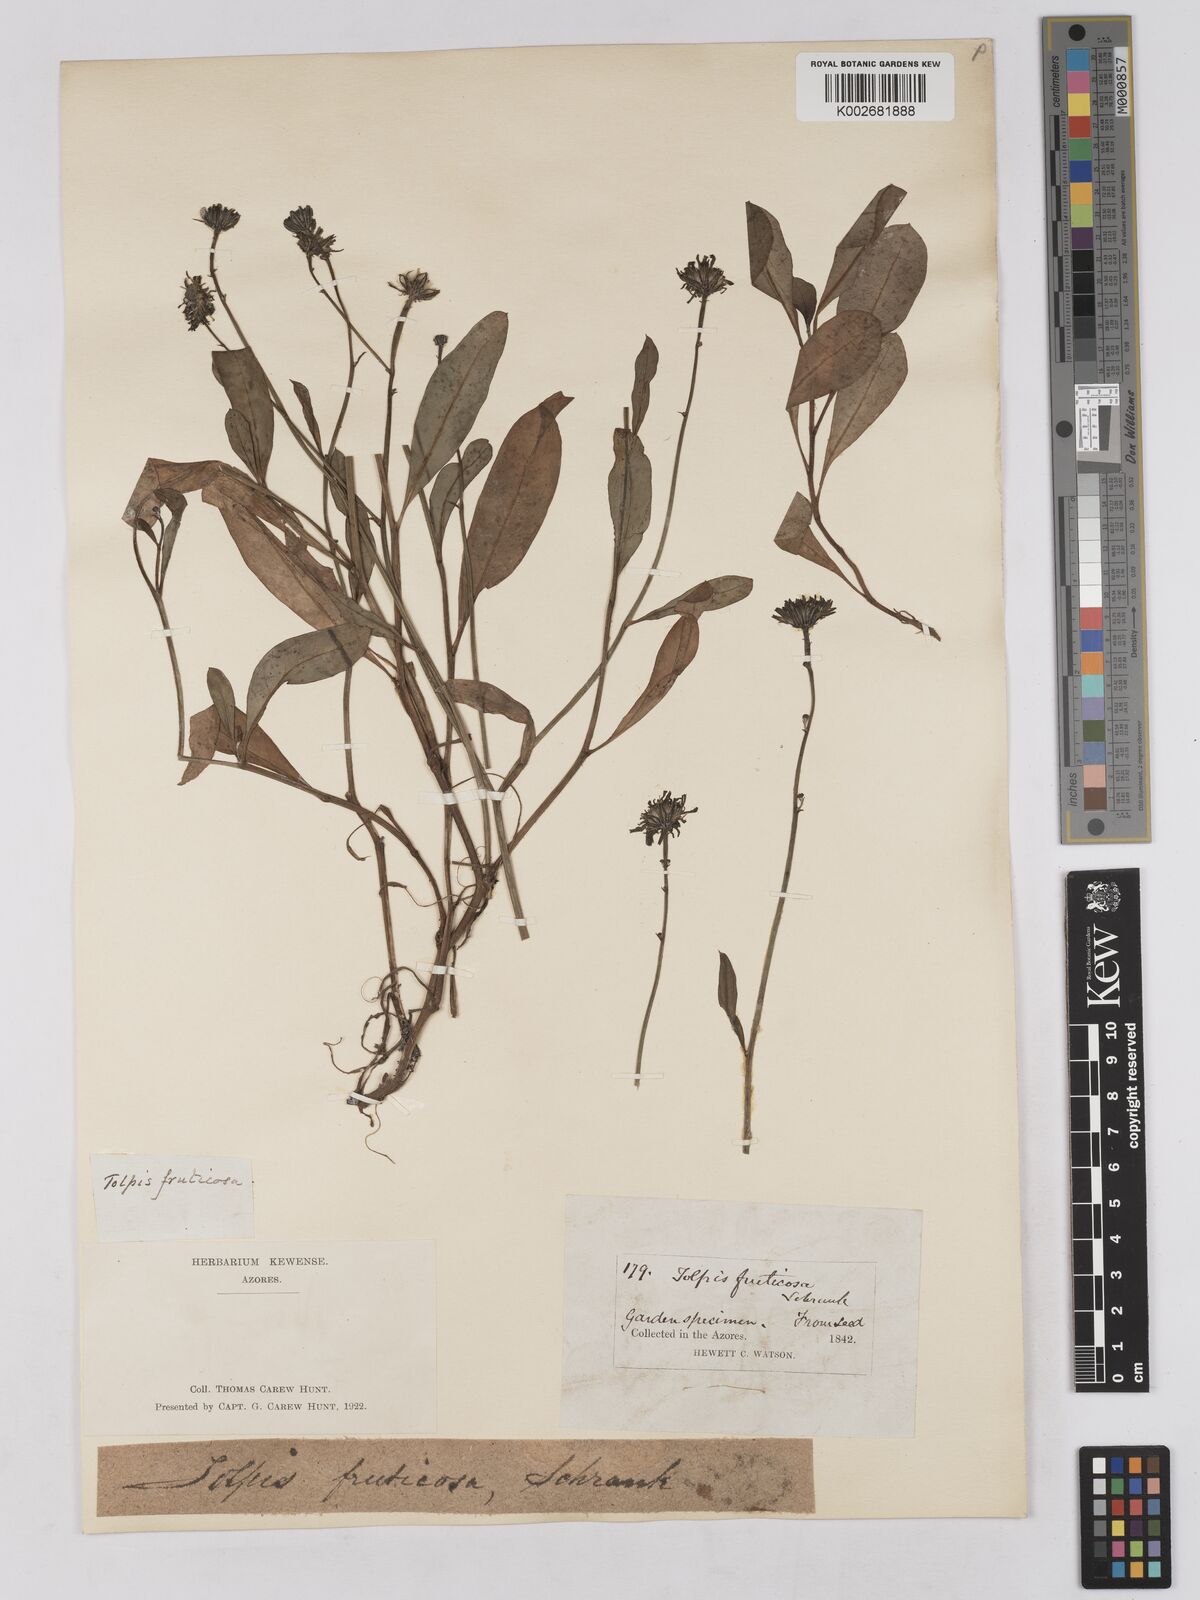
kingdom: Plantae
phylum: Tracheophyta
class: Magnoliopsida
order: Asterales
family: Asteraceae
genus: Tolpis
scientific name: Tolpis succulenta
